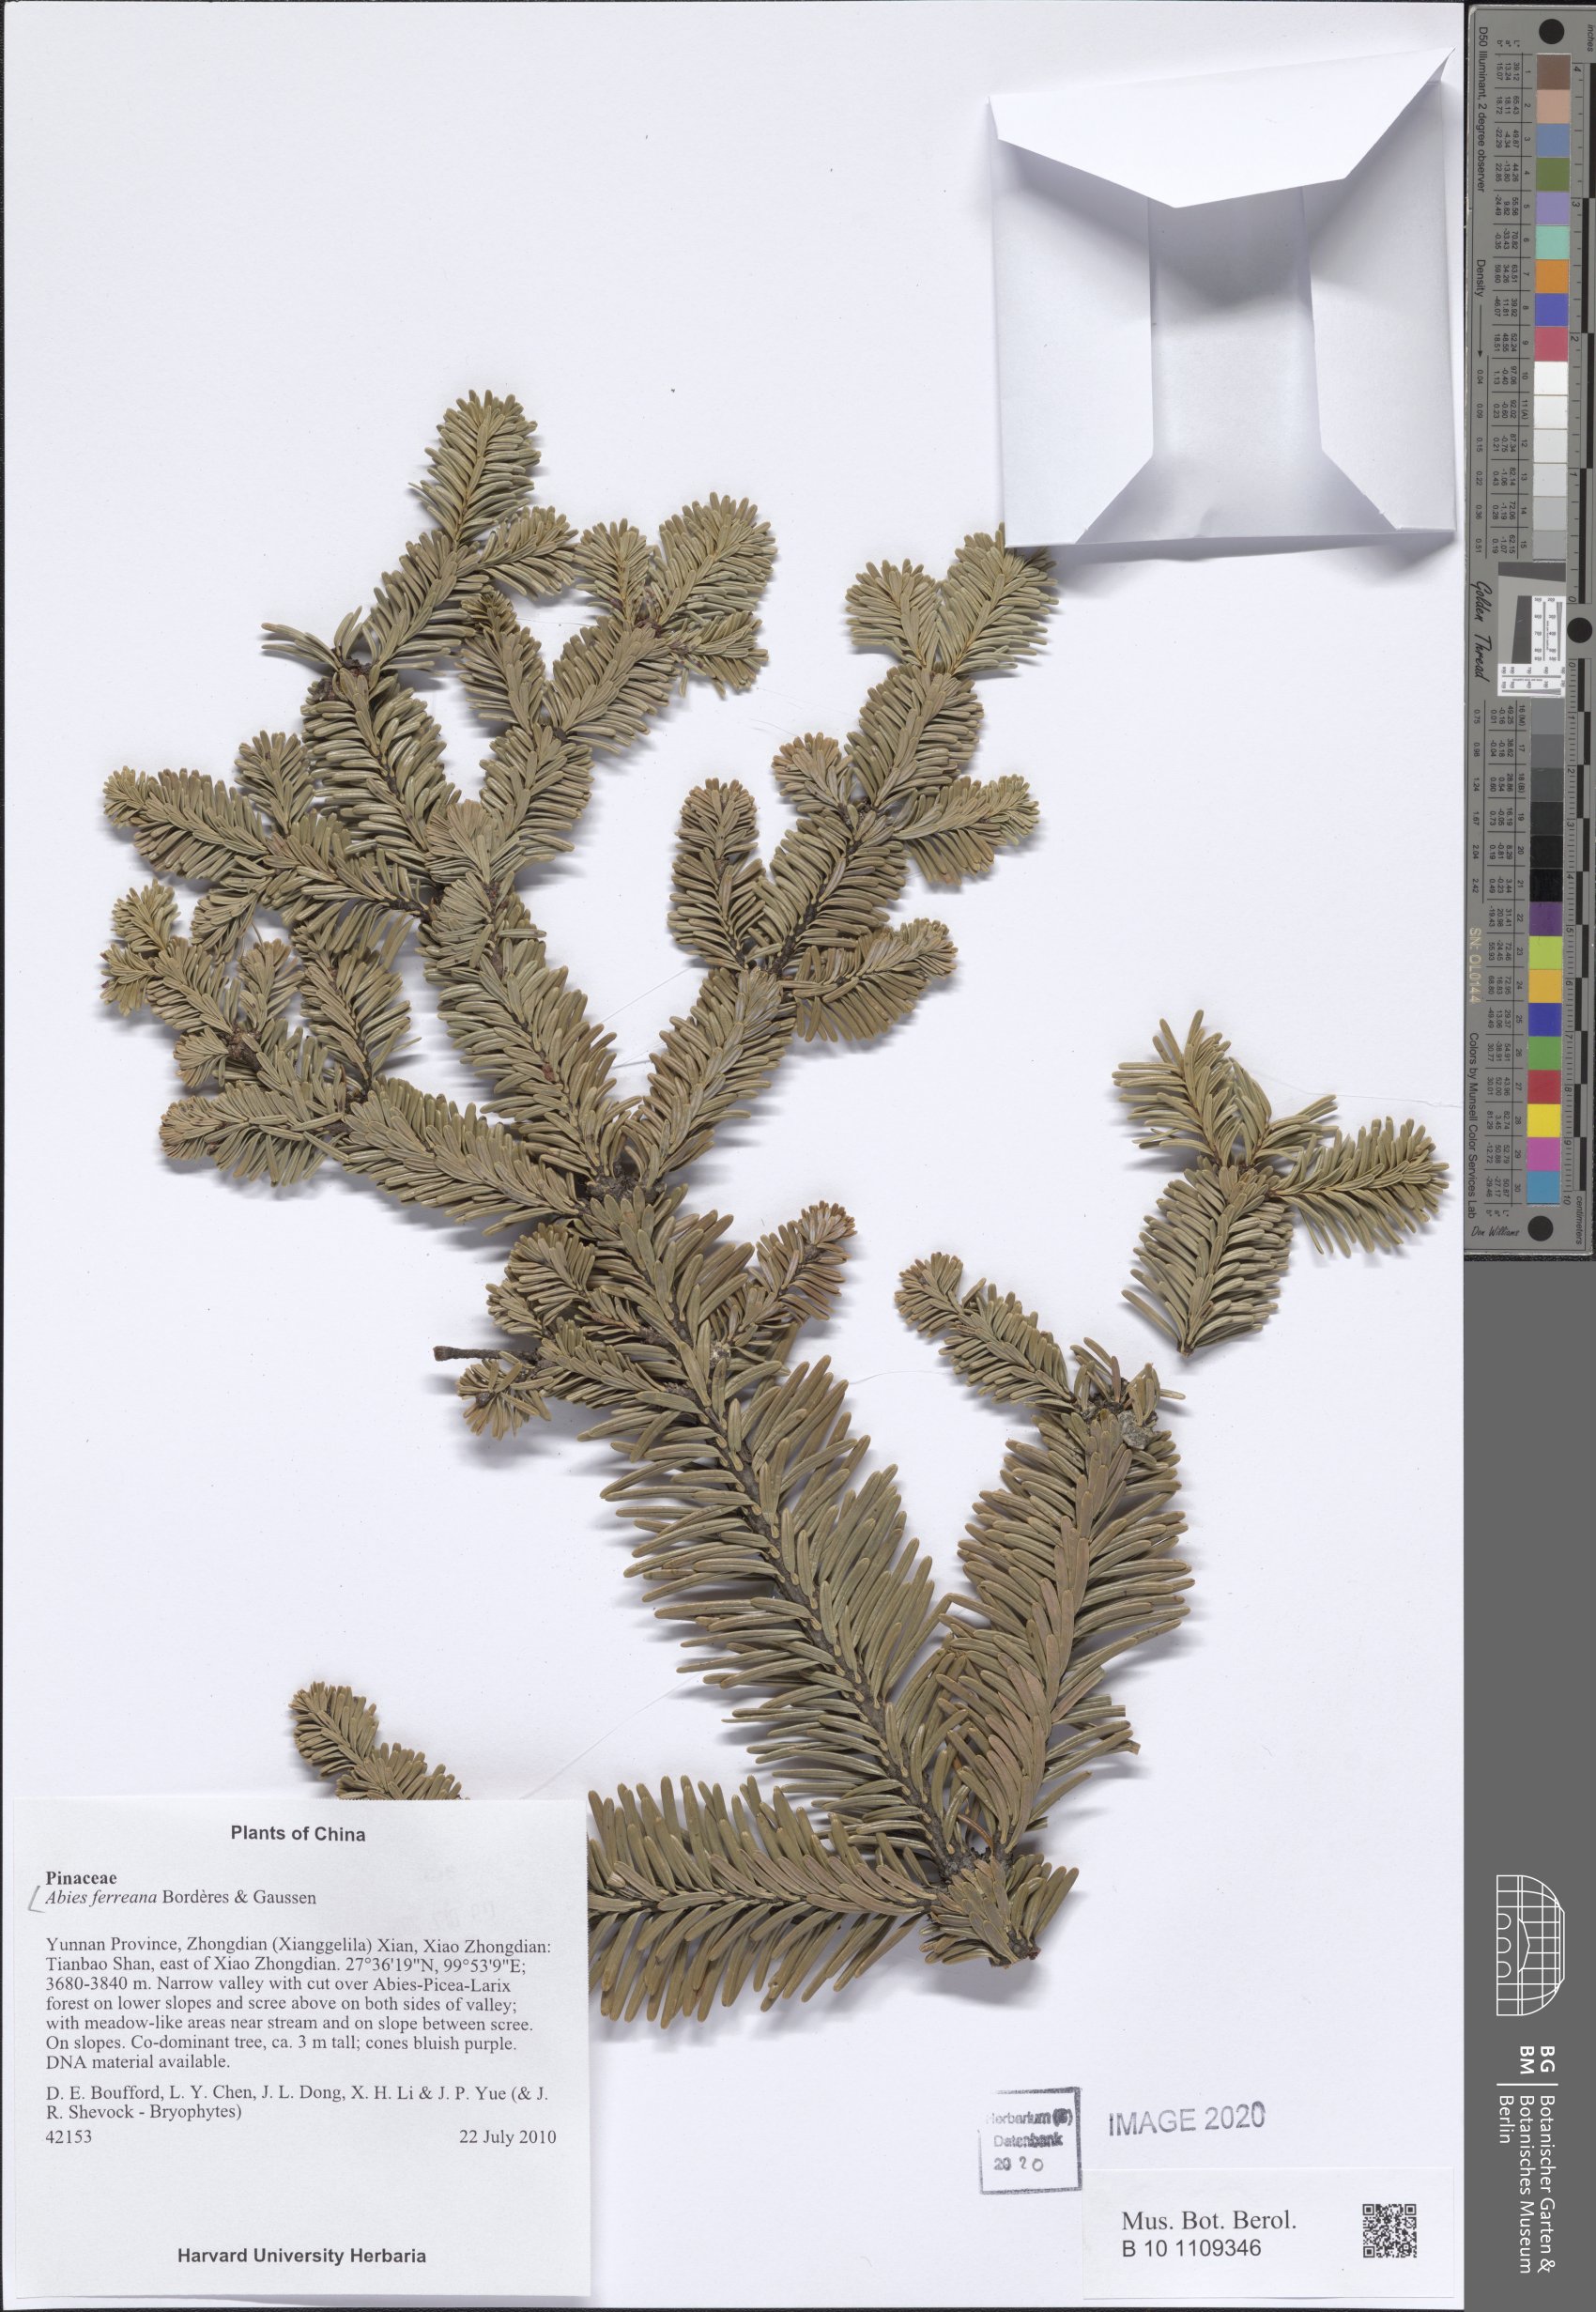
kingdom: Plantae
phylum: Tracheophyta
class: Pinopsida
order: Pinales
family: Pinaceae
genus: Abies
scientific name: Abies forrestii
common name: Forrest's fir
